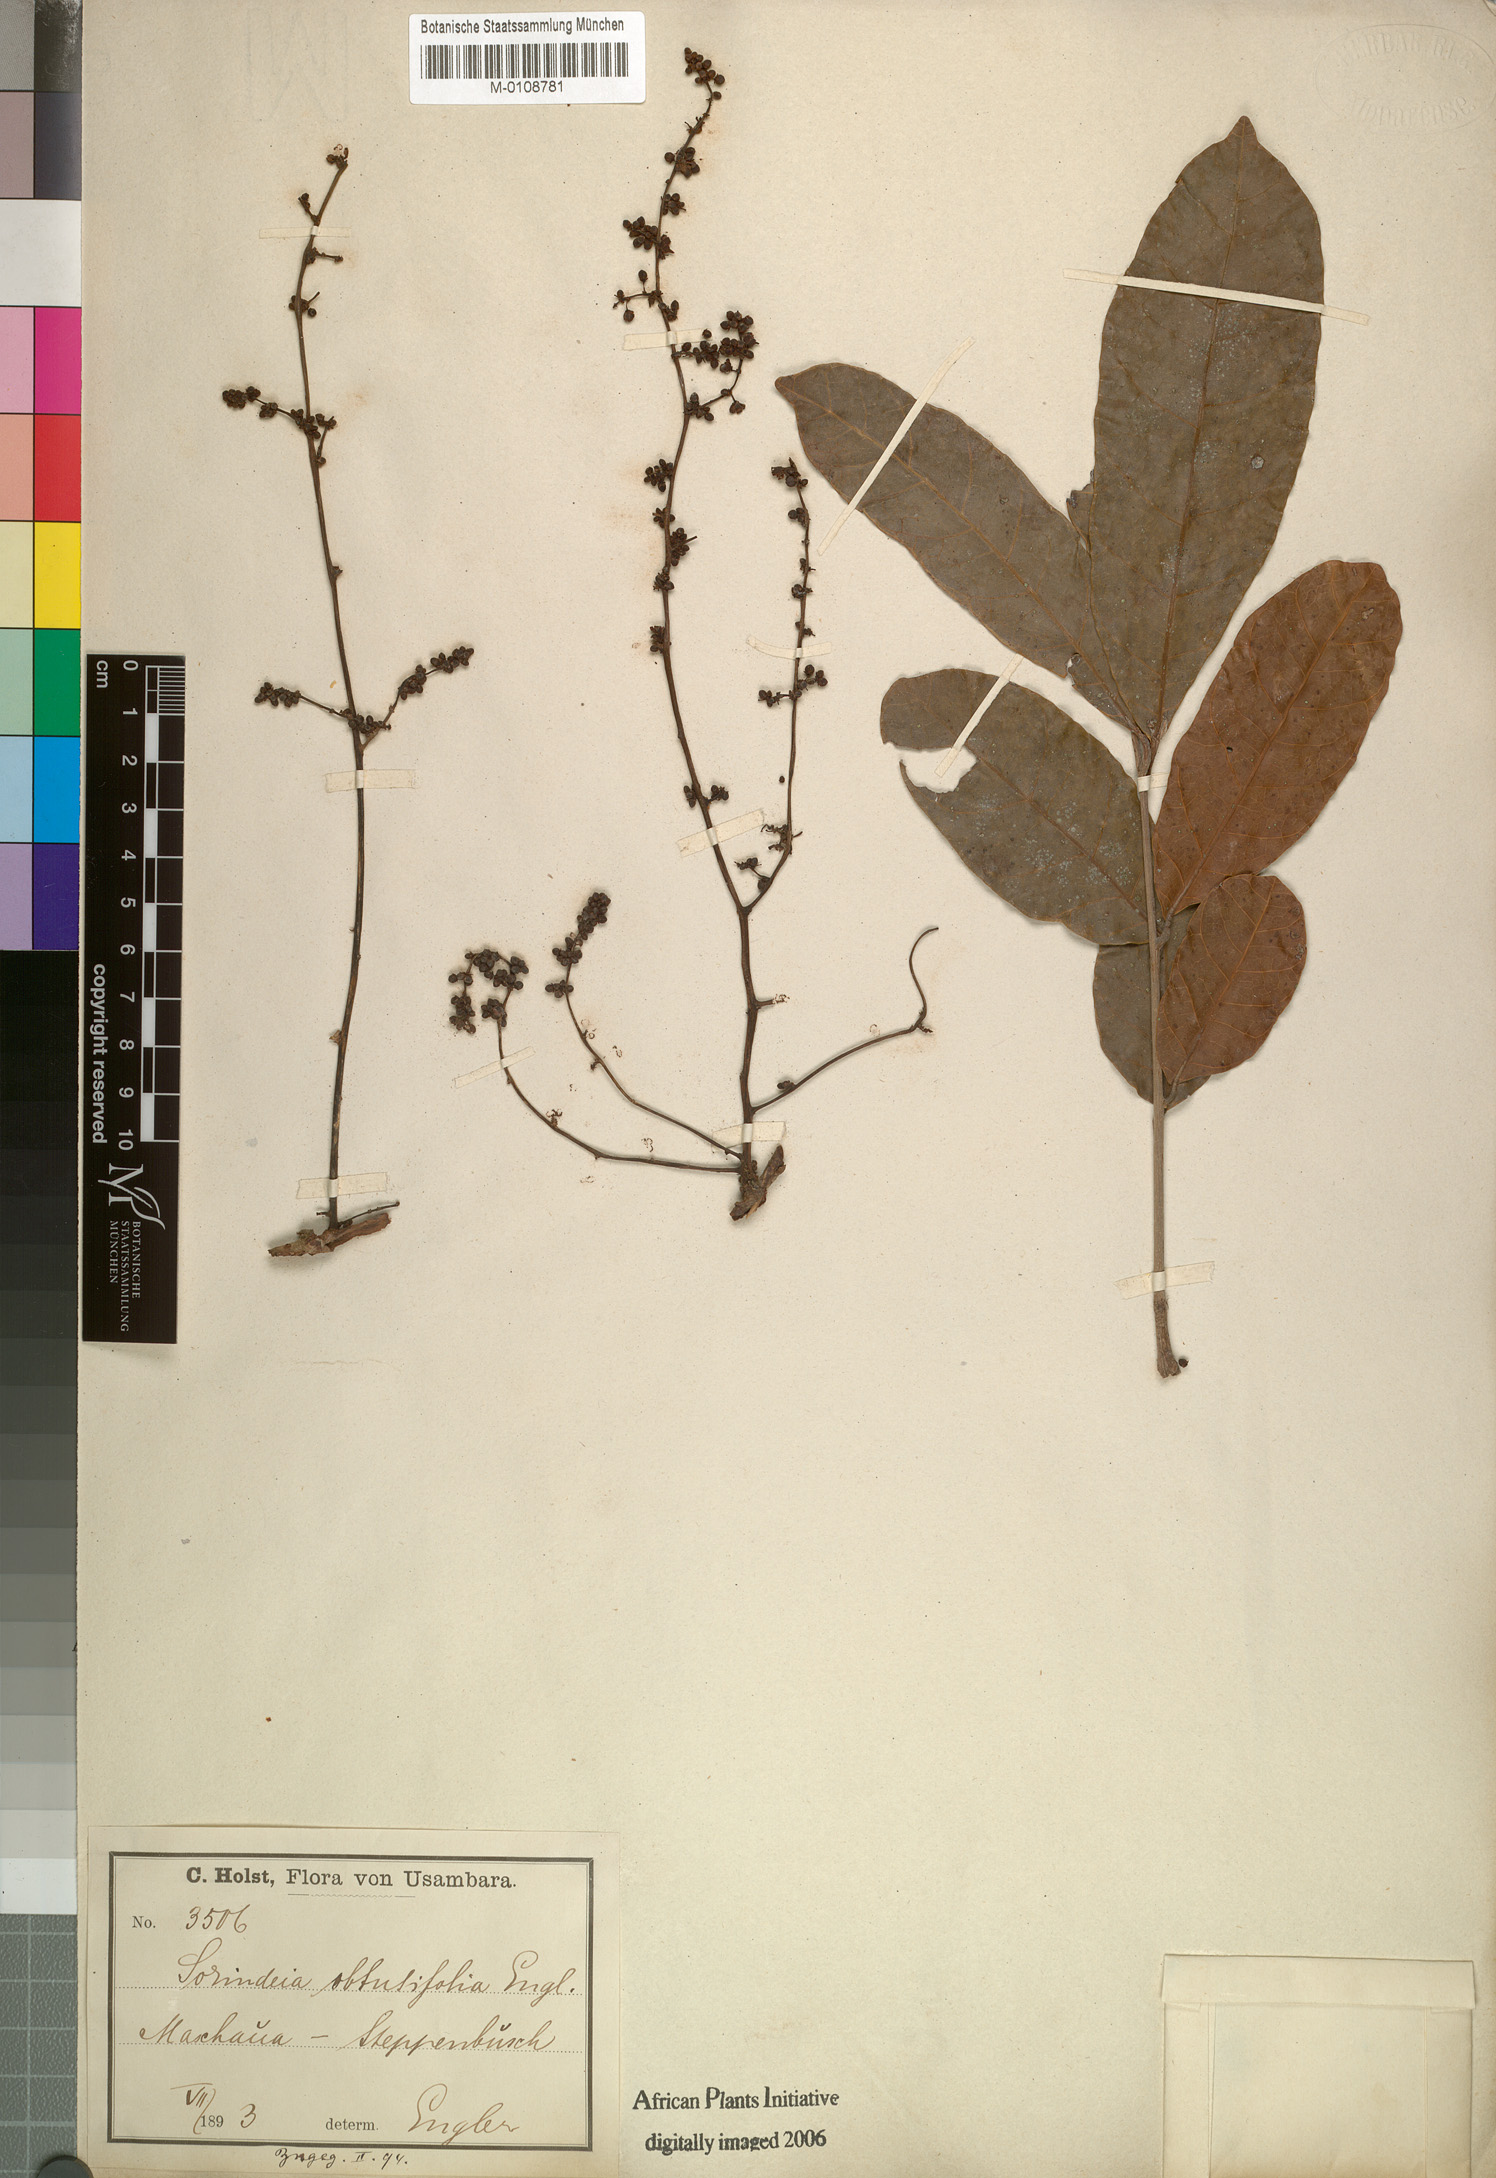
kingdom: Plantae
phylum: Tracheophyta
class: Magnoliopsida
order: Sapindales
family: Anacardiaceae
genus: Sorindeia
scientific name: Sorindeia madagascariensis
